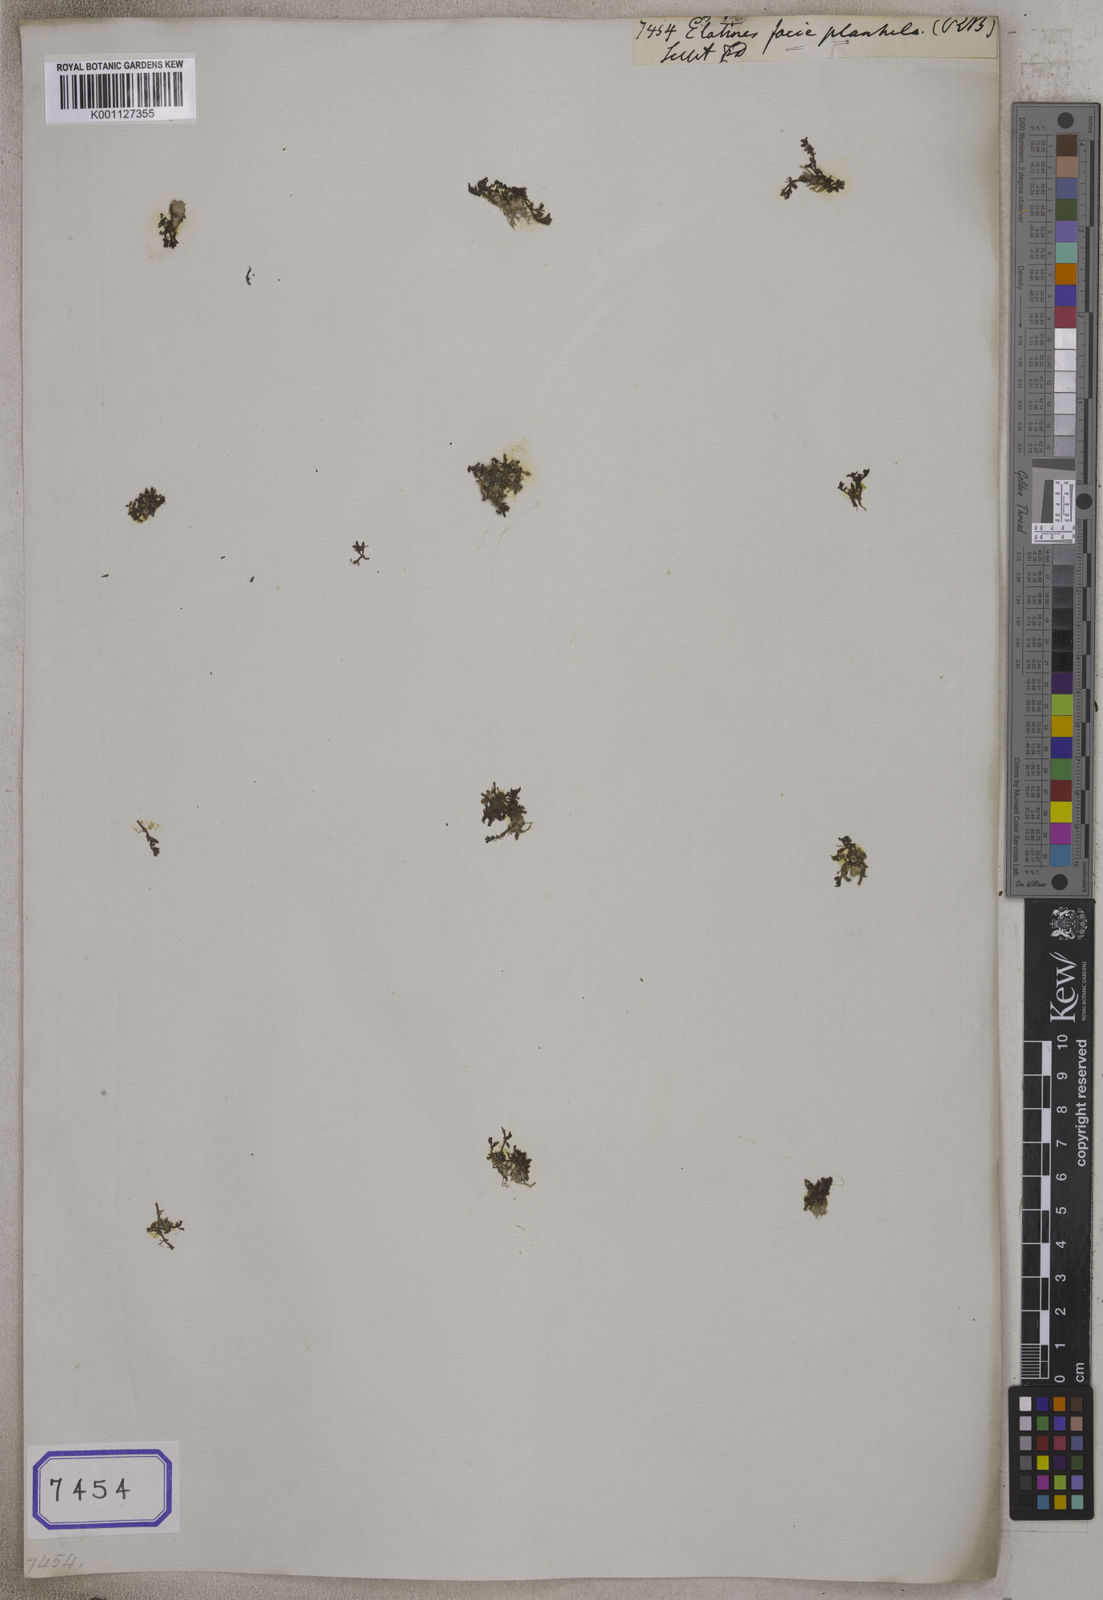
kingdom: Plantae
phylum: Tracheophyta
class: Magnoliopsida
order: Malpighiales
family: Elatinaceae
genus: Elatine
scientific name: Elatine
